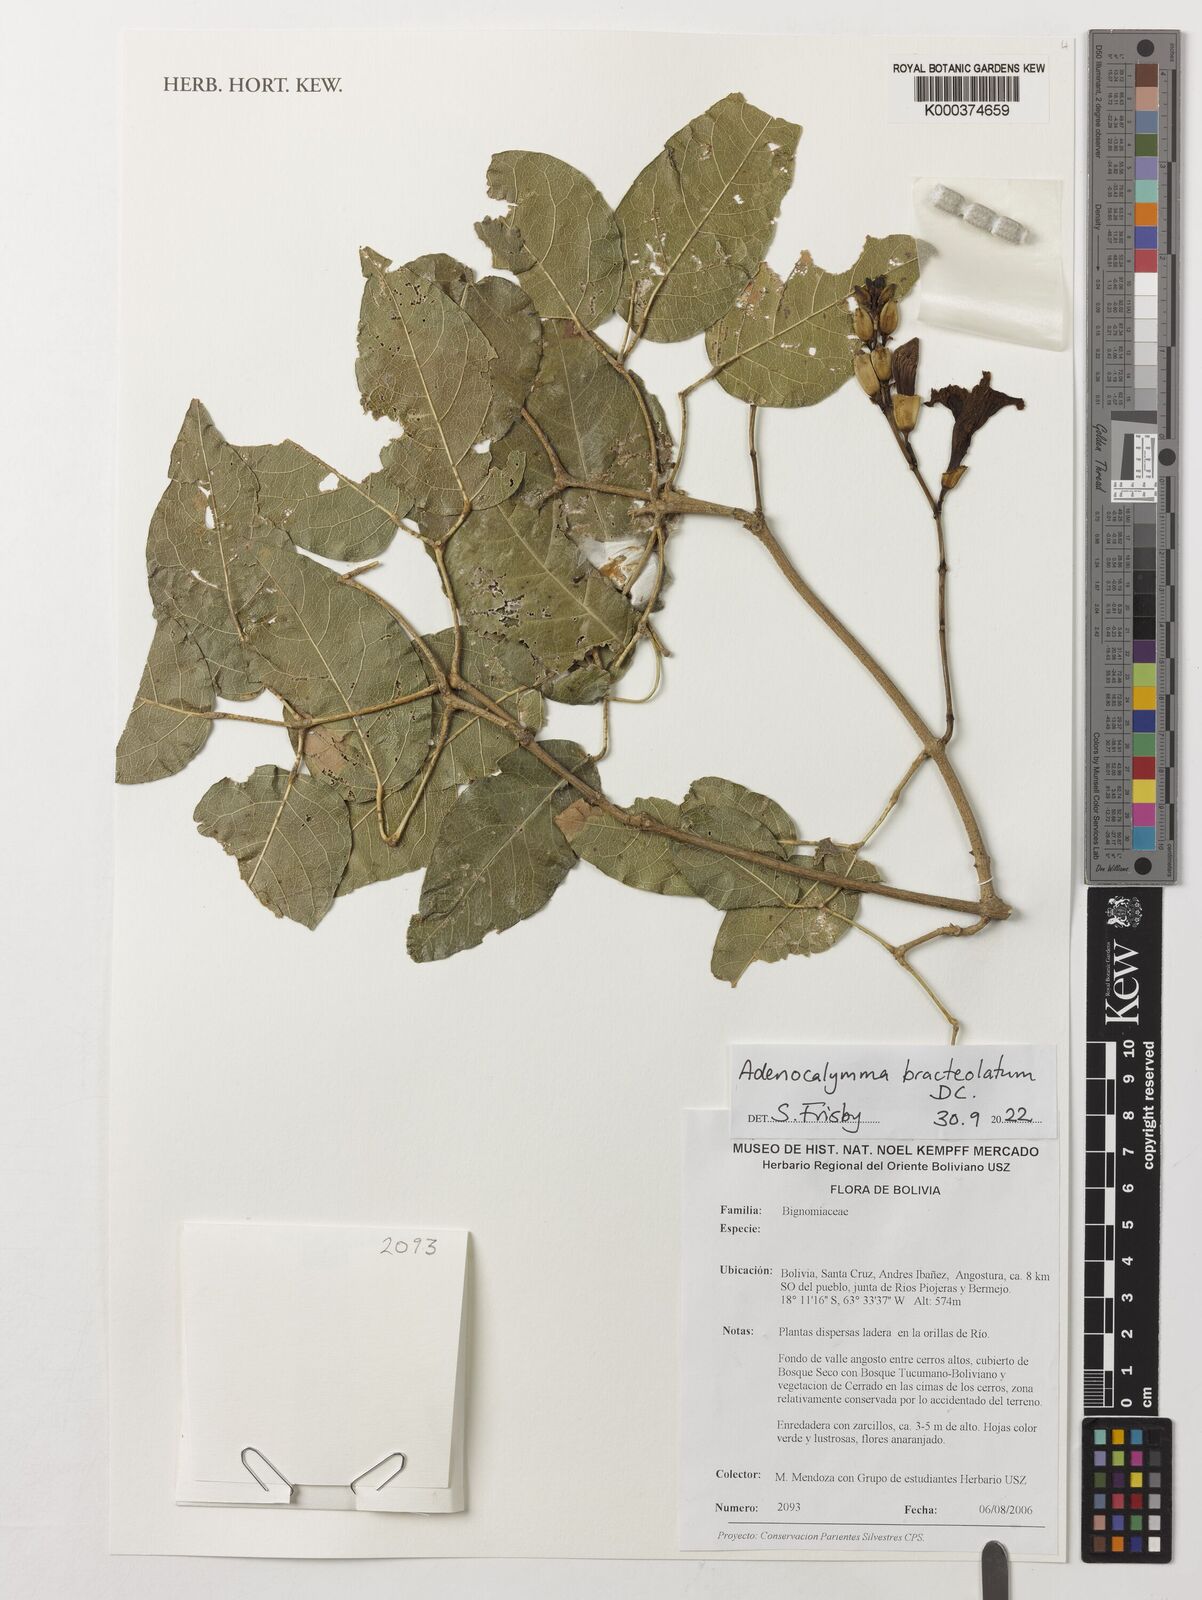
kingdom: Plantae
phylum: Tracheophyta
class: Magnoliopsida
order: Lamiales
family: Bignoniaceae
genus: Adenocalymma
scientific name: Adenocalymma bracteolatum
